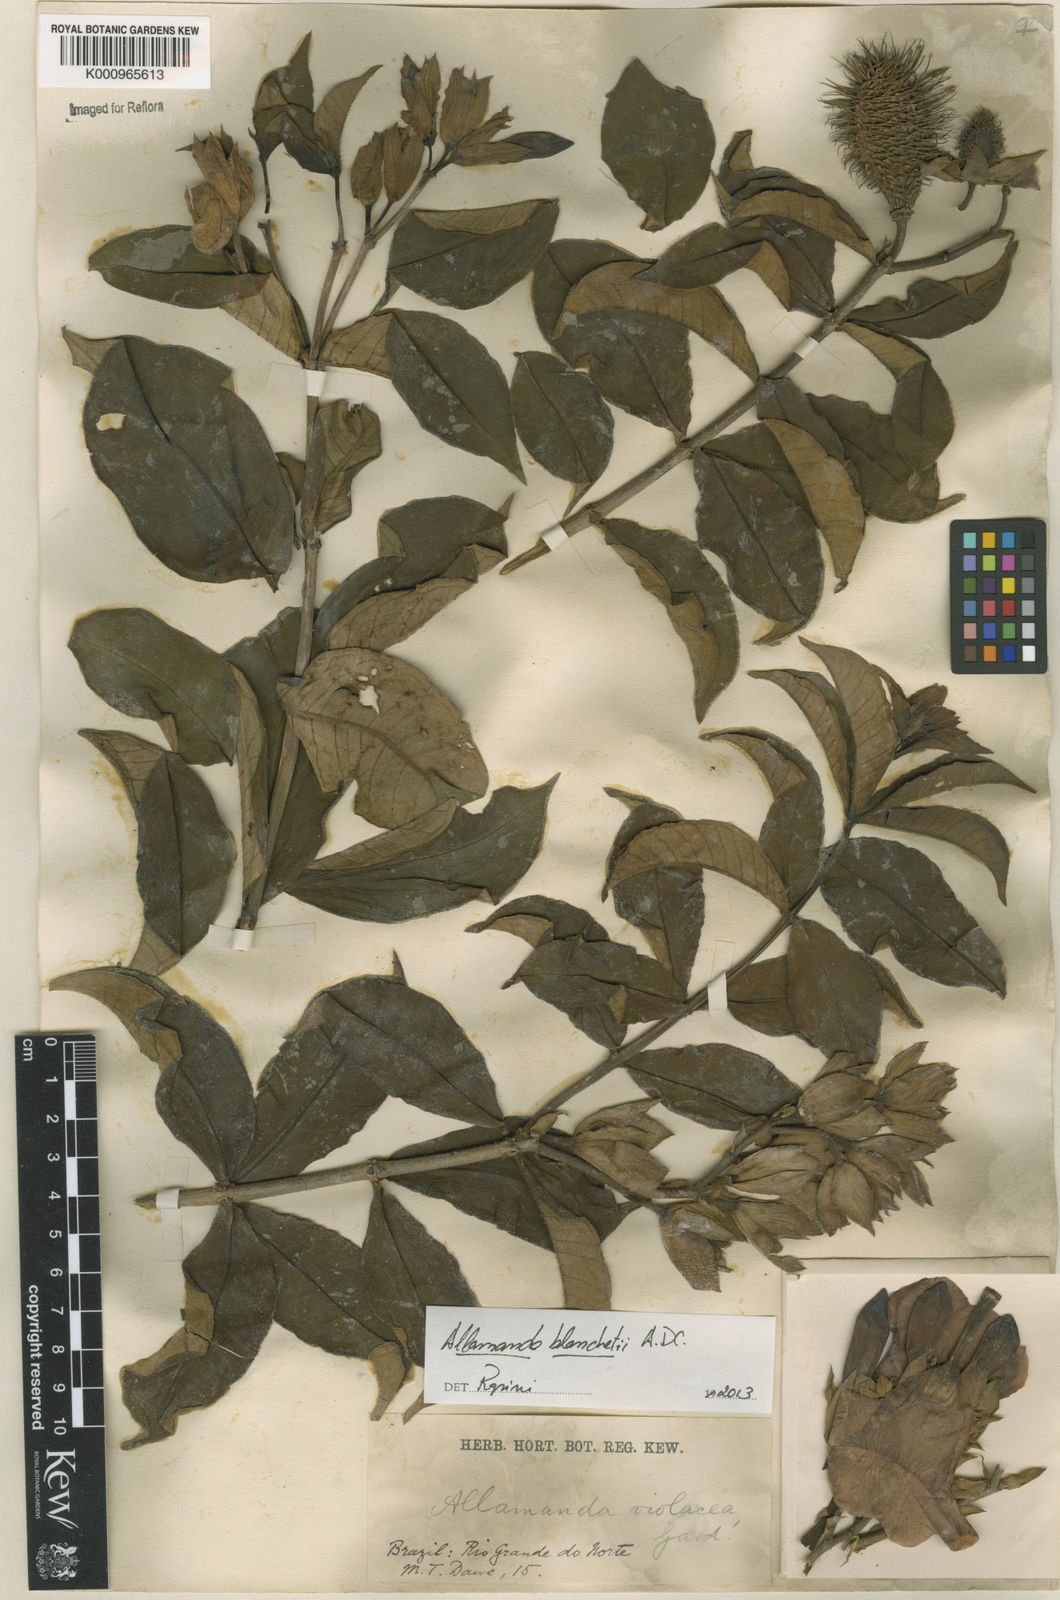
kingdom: Plantae
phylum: Tracheophyta
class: Magnoliopsida
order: Gentianales
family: Apocynaceae
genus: Allamanda
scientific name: Allamanda blanchetii
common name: Purple allamanda
